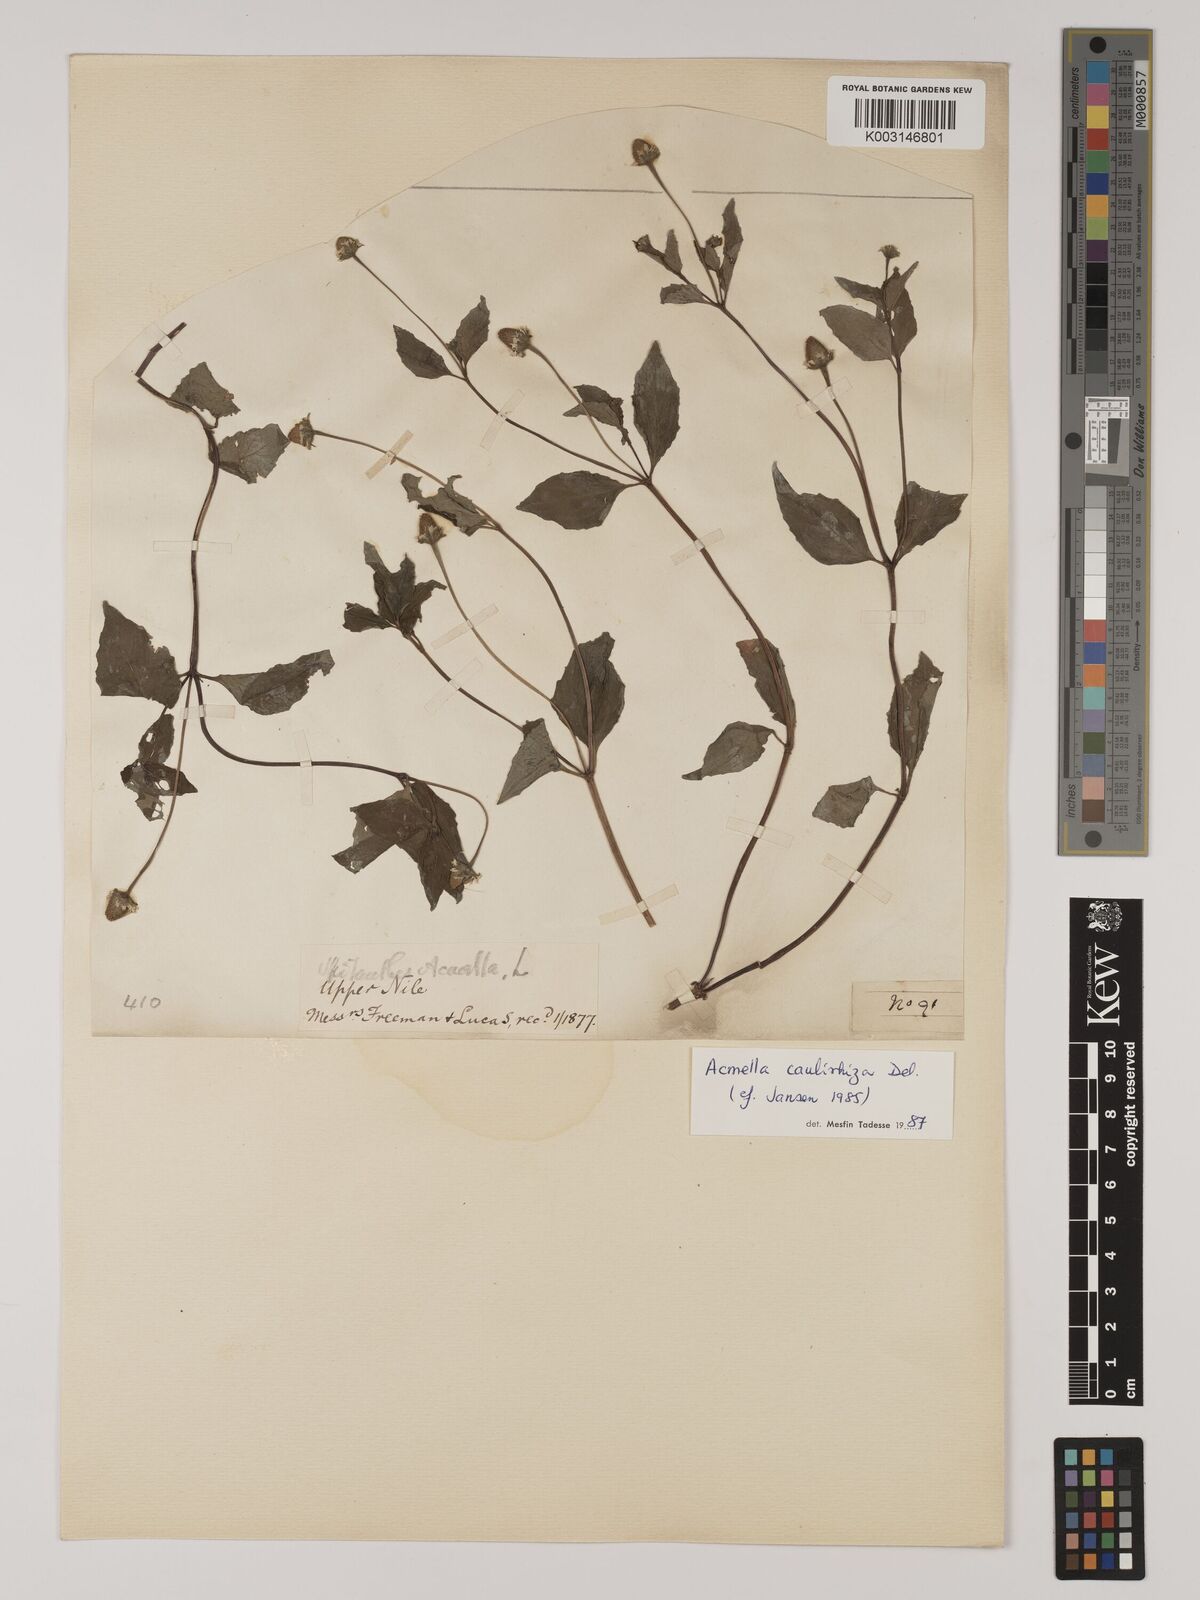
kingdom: Plantae
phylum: Tracheophyta
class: Magnoliopsida
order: Asterales
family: Asteraceae
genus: Acmella
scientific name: Acmella caulirhiza
